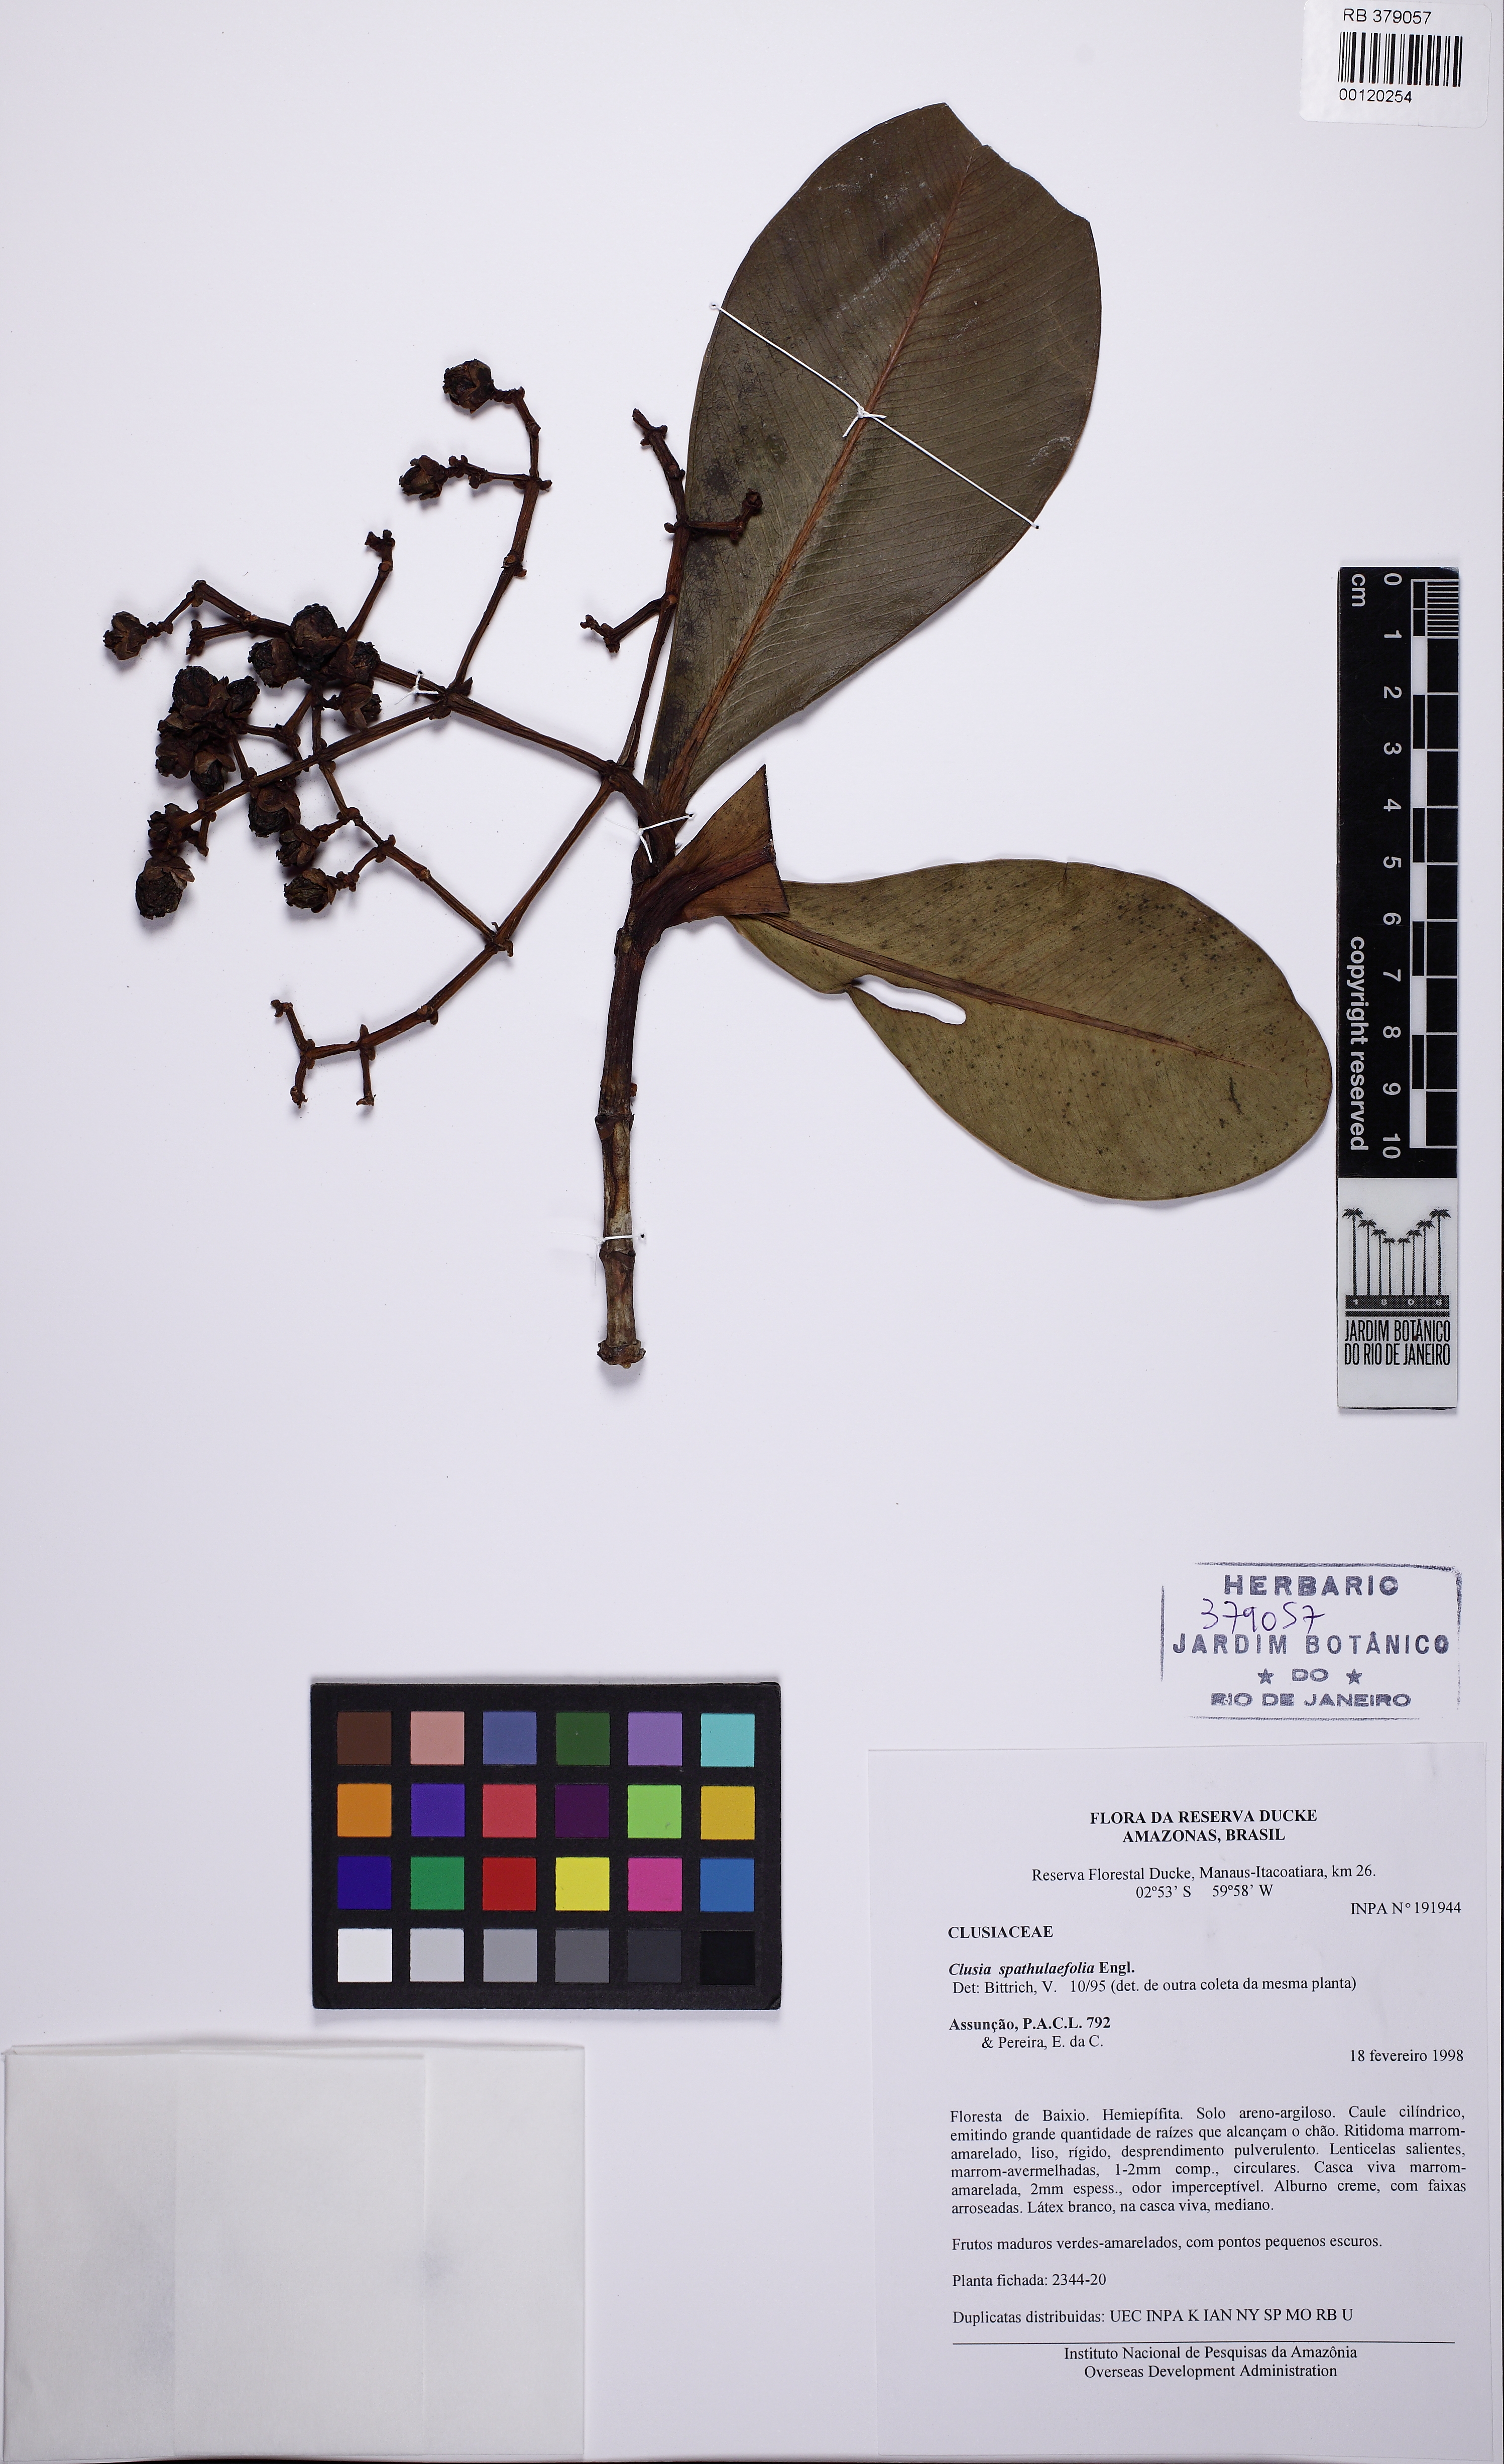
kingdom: Plantae
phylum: Tracheophyta
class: Magnoliopsida
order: Malpighiales
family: Clusiaceae
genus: Clusia
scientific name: Clusia spathulifolia
